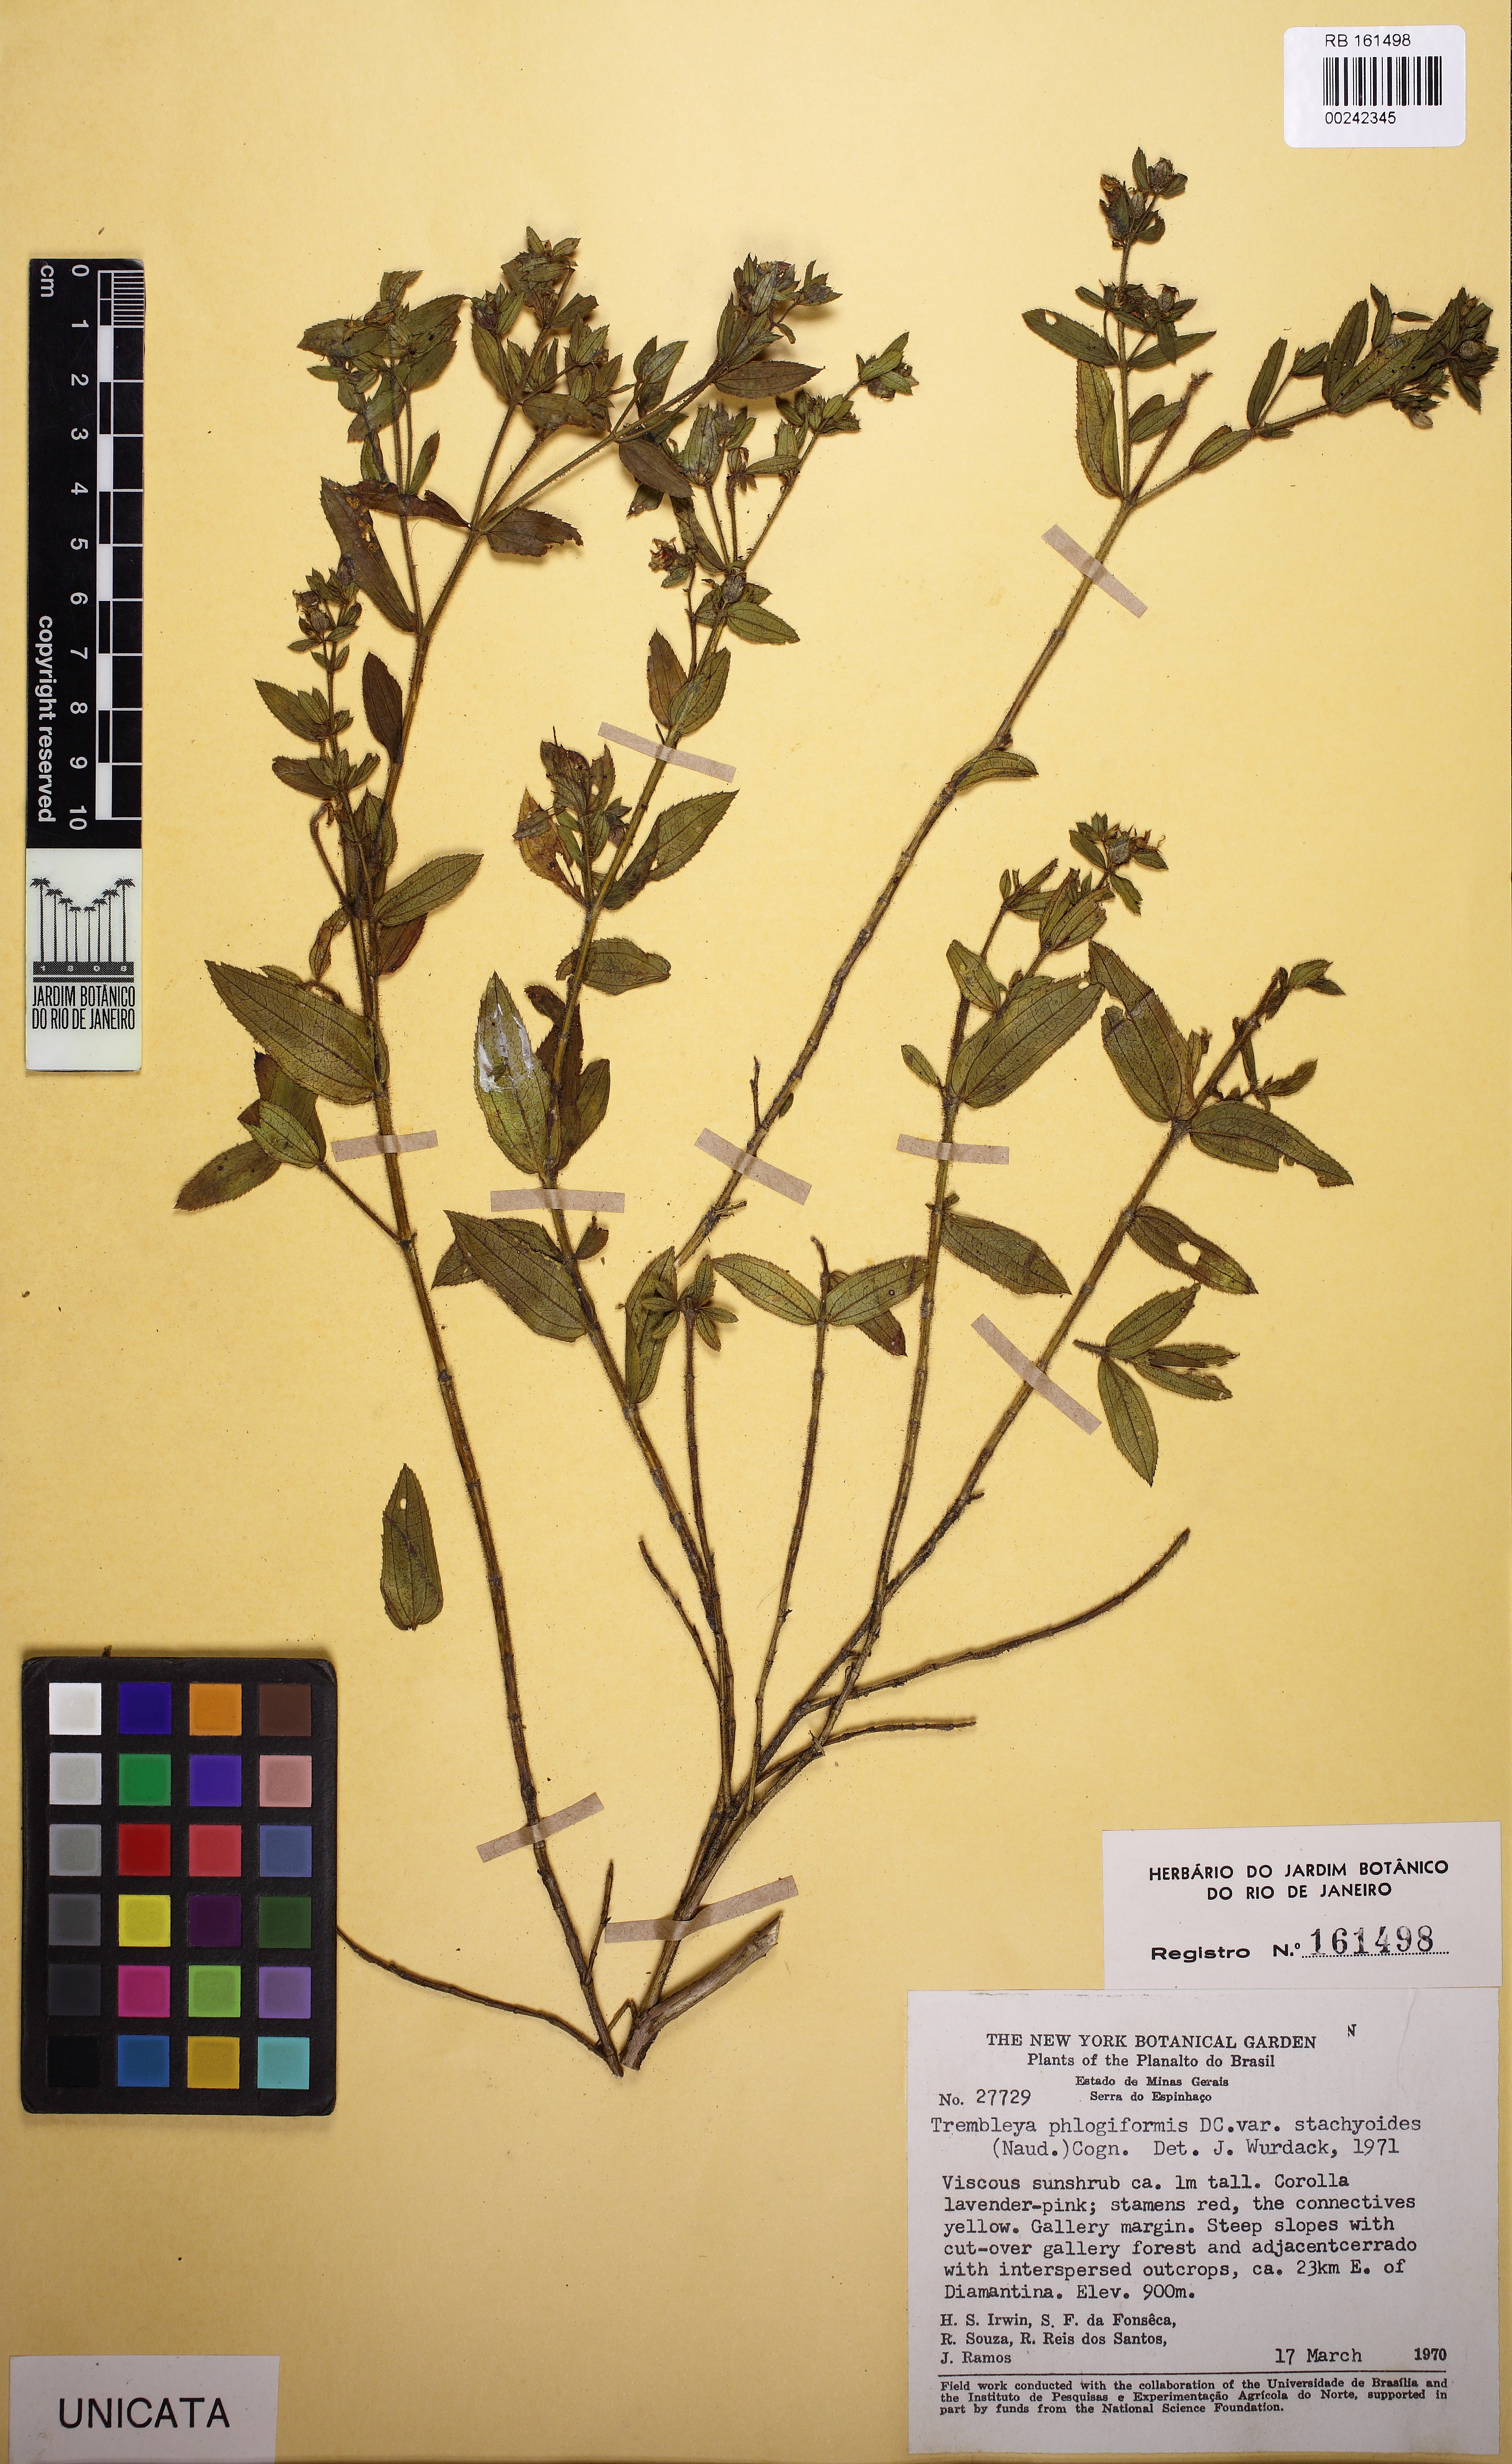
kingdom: Plantae
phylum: Tracheophyta
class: Magnoliopsida
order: Myrtales
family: Melastomataceae
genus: Microlicia
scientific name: Microlicia phlogiformis
